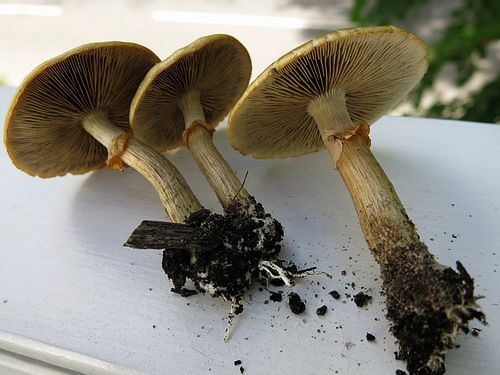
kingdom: Fungi
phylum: Basidiomycota
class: Agaricomycetes
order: Agaricales
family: Strophariaceae
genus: Agrocybe
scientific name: Agrocybe praecox
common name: tidlig agerhat
